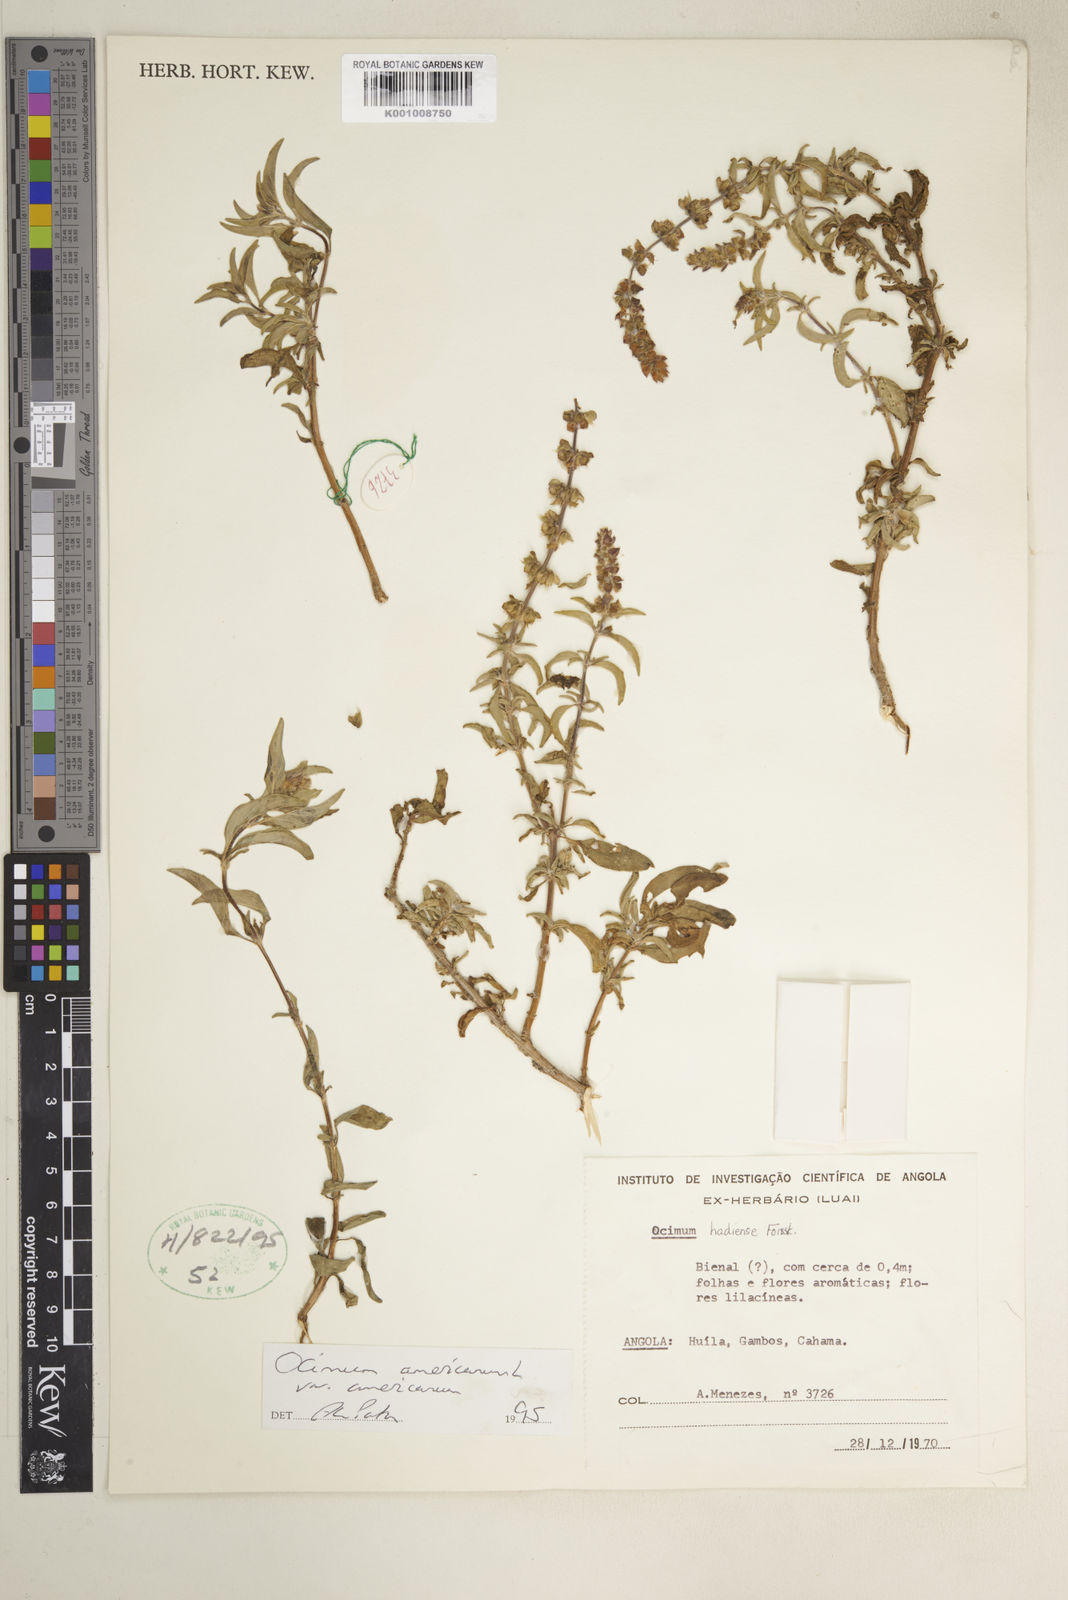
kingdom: Plantae
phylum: Tracheophyta
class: Magnoliopsida
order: Lamiales
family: Lamiaceae
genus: Ocimum
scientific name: Ocimum americanum
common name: American basil
